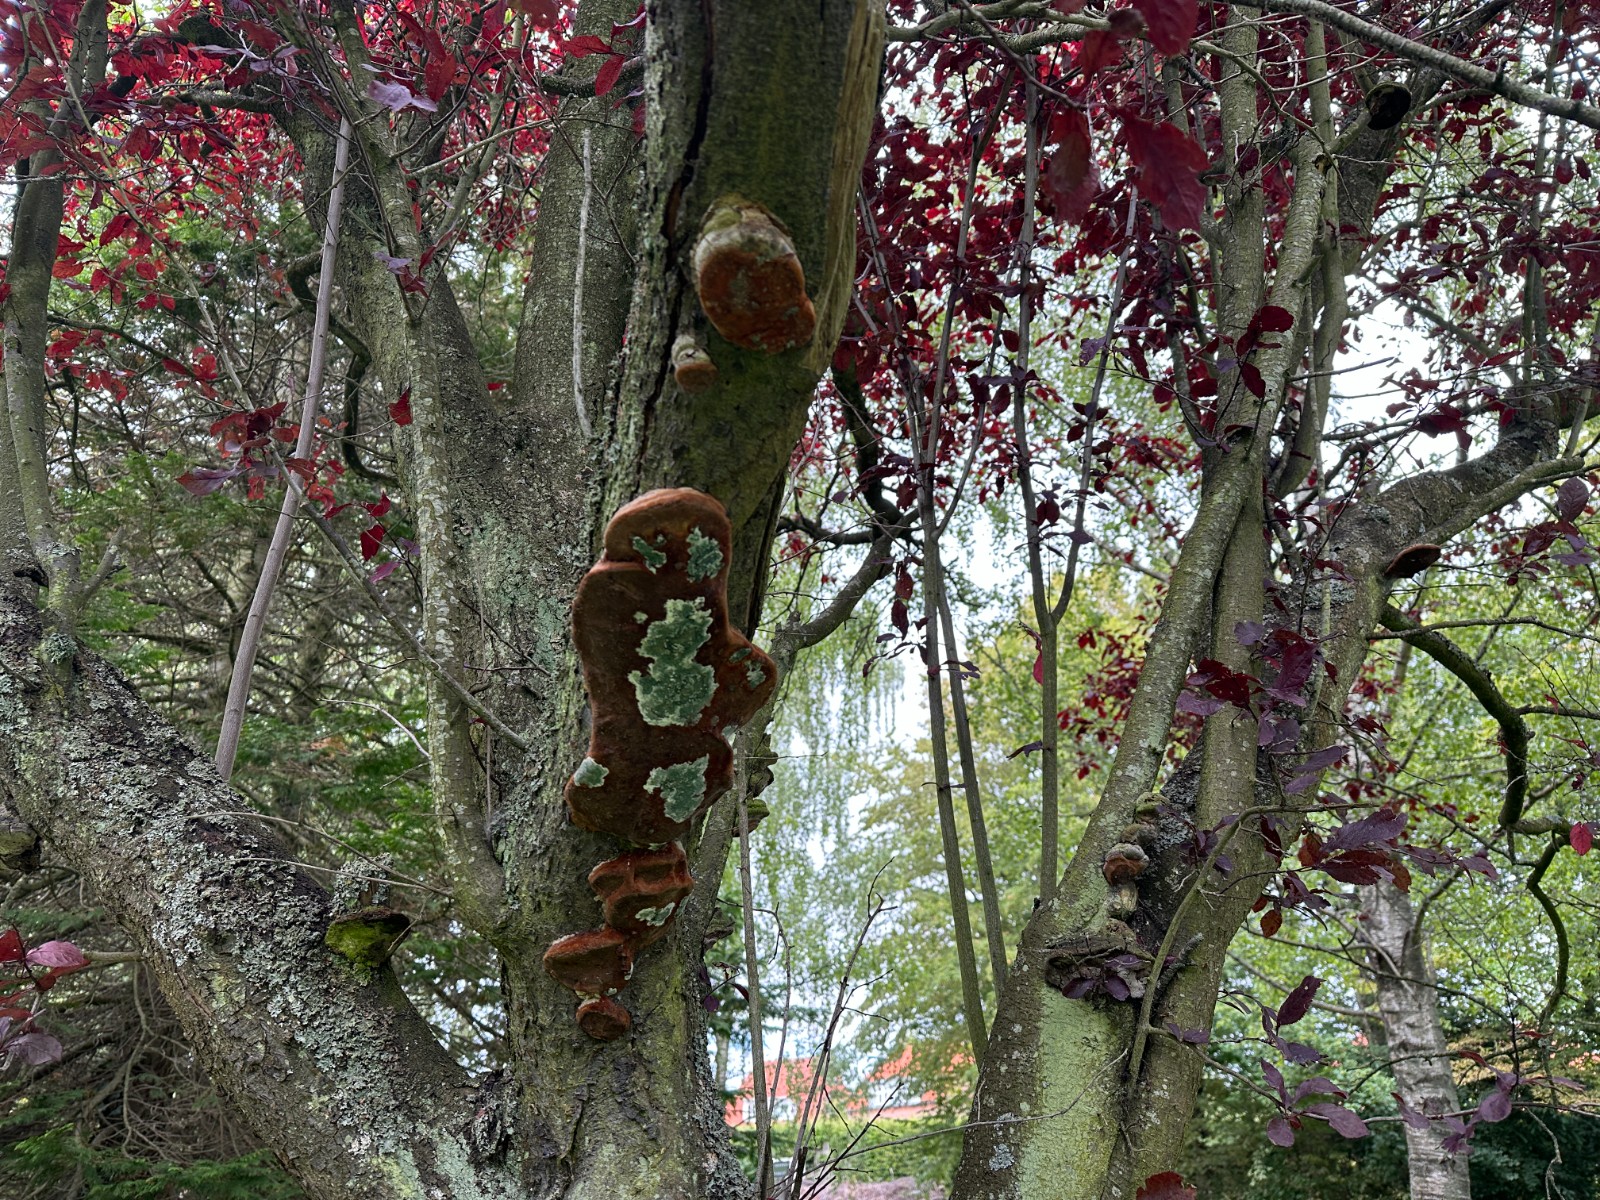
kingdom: Fungi
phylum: Basidiomycota
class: Agaricomycetes
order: Hymenochaetales
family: Hymenochaetaceae
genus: Phellinus
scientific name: Phellinus pomaceus
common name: blomme-ildporesvamp
